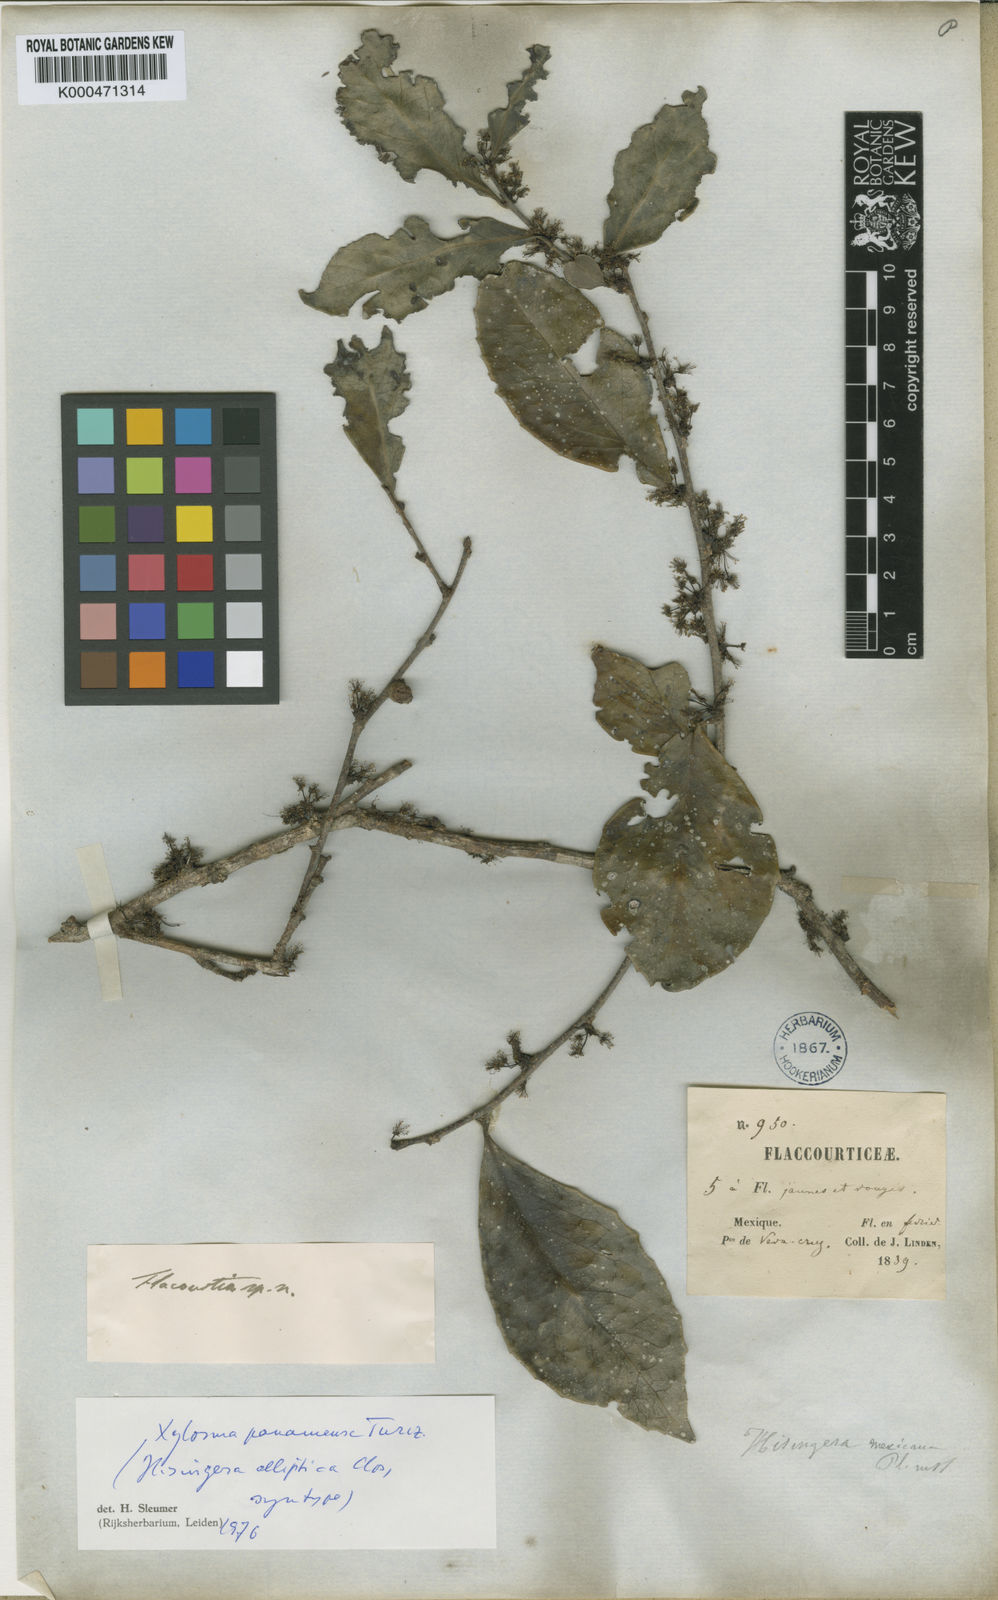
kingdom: Plantae
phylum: Tracheophyta
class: Magnoliopsida
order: Malpighiales
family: Salicaceae
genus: Xylosma
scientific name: Xylosma panamensis
